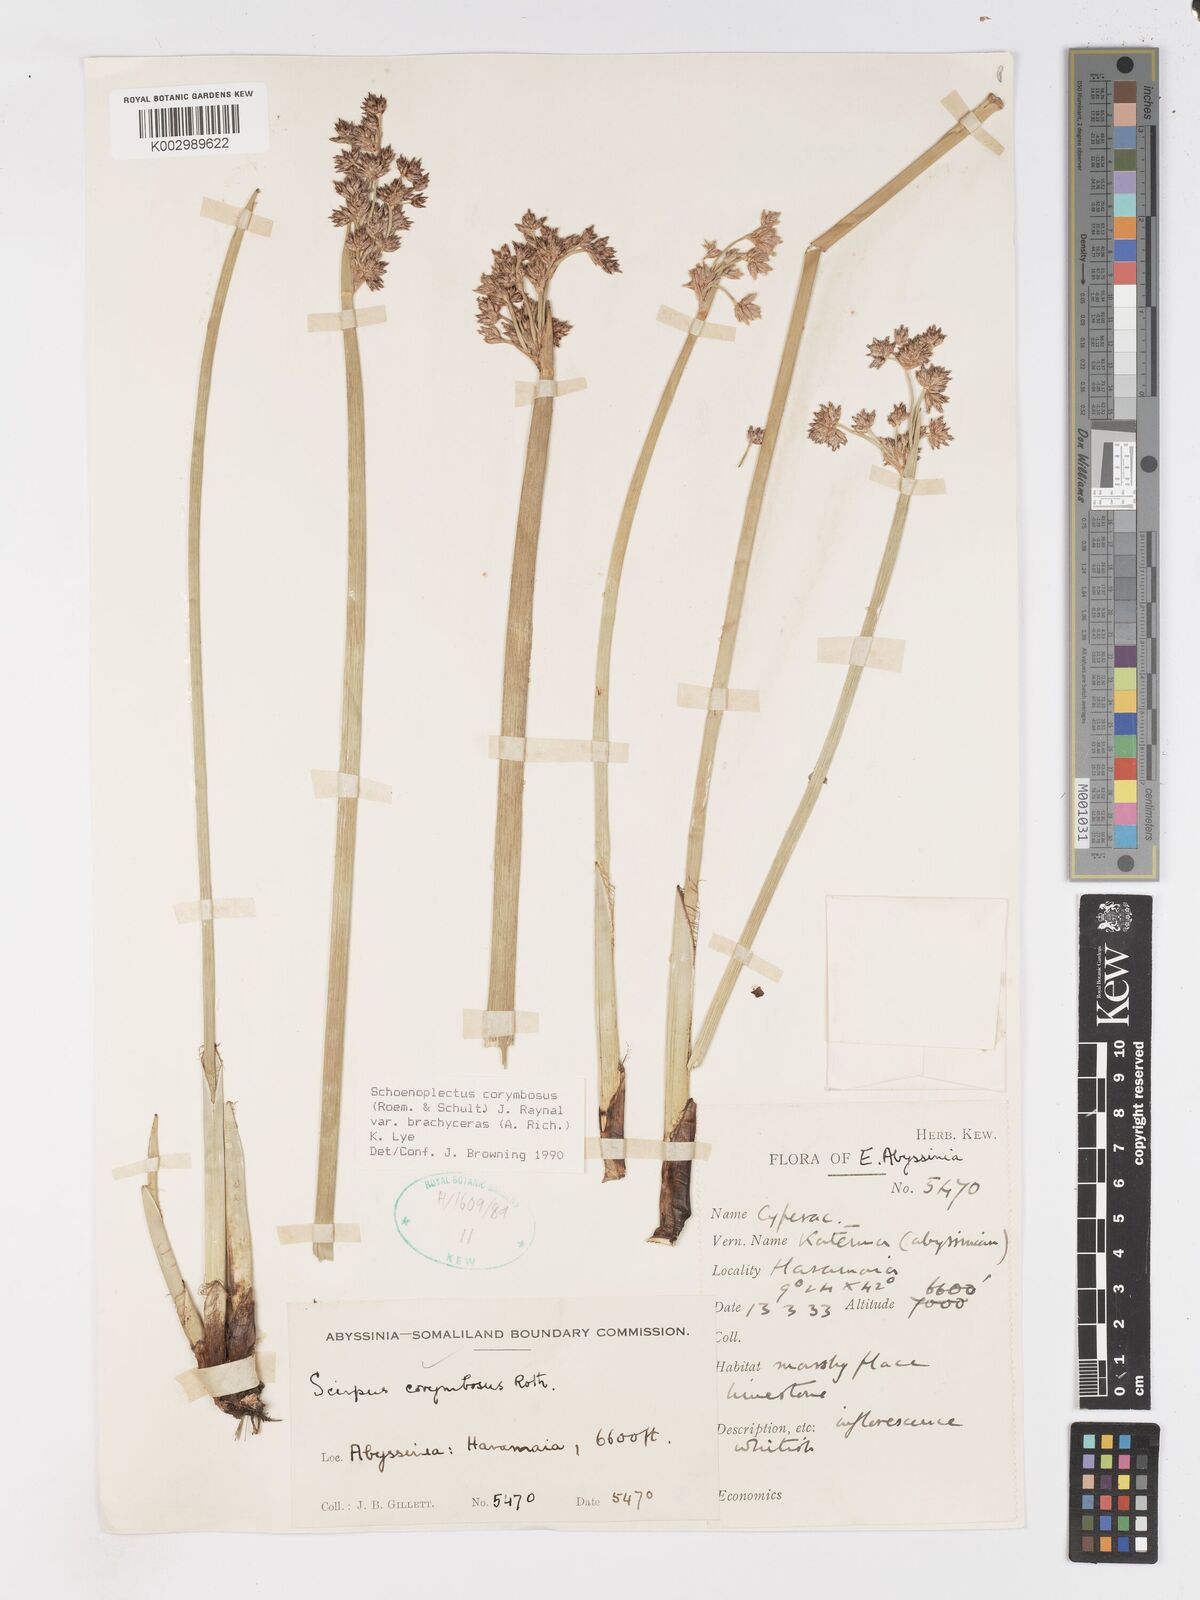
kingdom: Plantae
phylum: Tracheophyta
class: Liliopsida
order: Poales
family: Cyperaceae
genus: Schoenoplectiella
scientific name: Schoenoplectiella brachyceras
